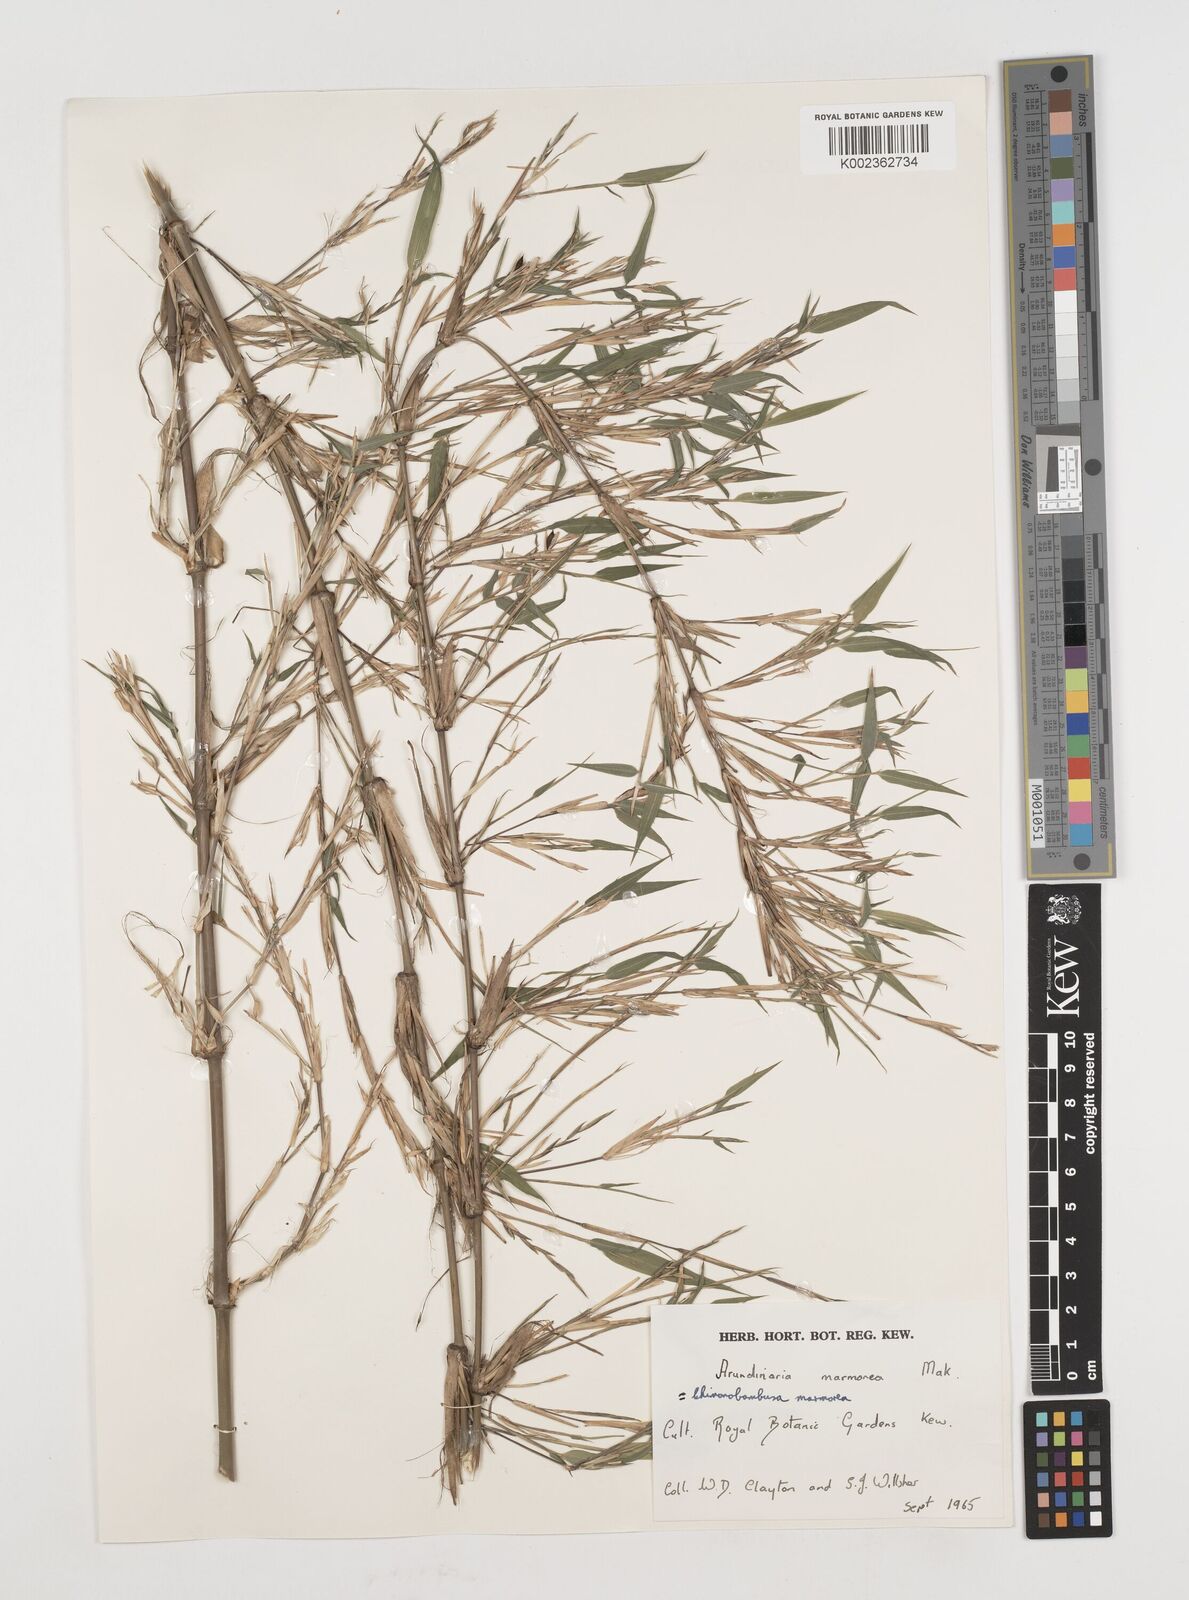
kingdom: Plantae
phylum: Tracheophyta
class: Liliopsida
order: Poales
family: Poaceae
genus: Chimonobambusa
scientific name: Chimonobambusa marmorea
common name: Marbled bamboo
